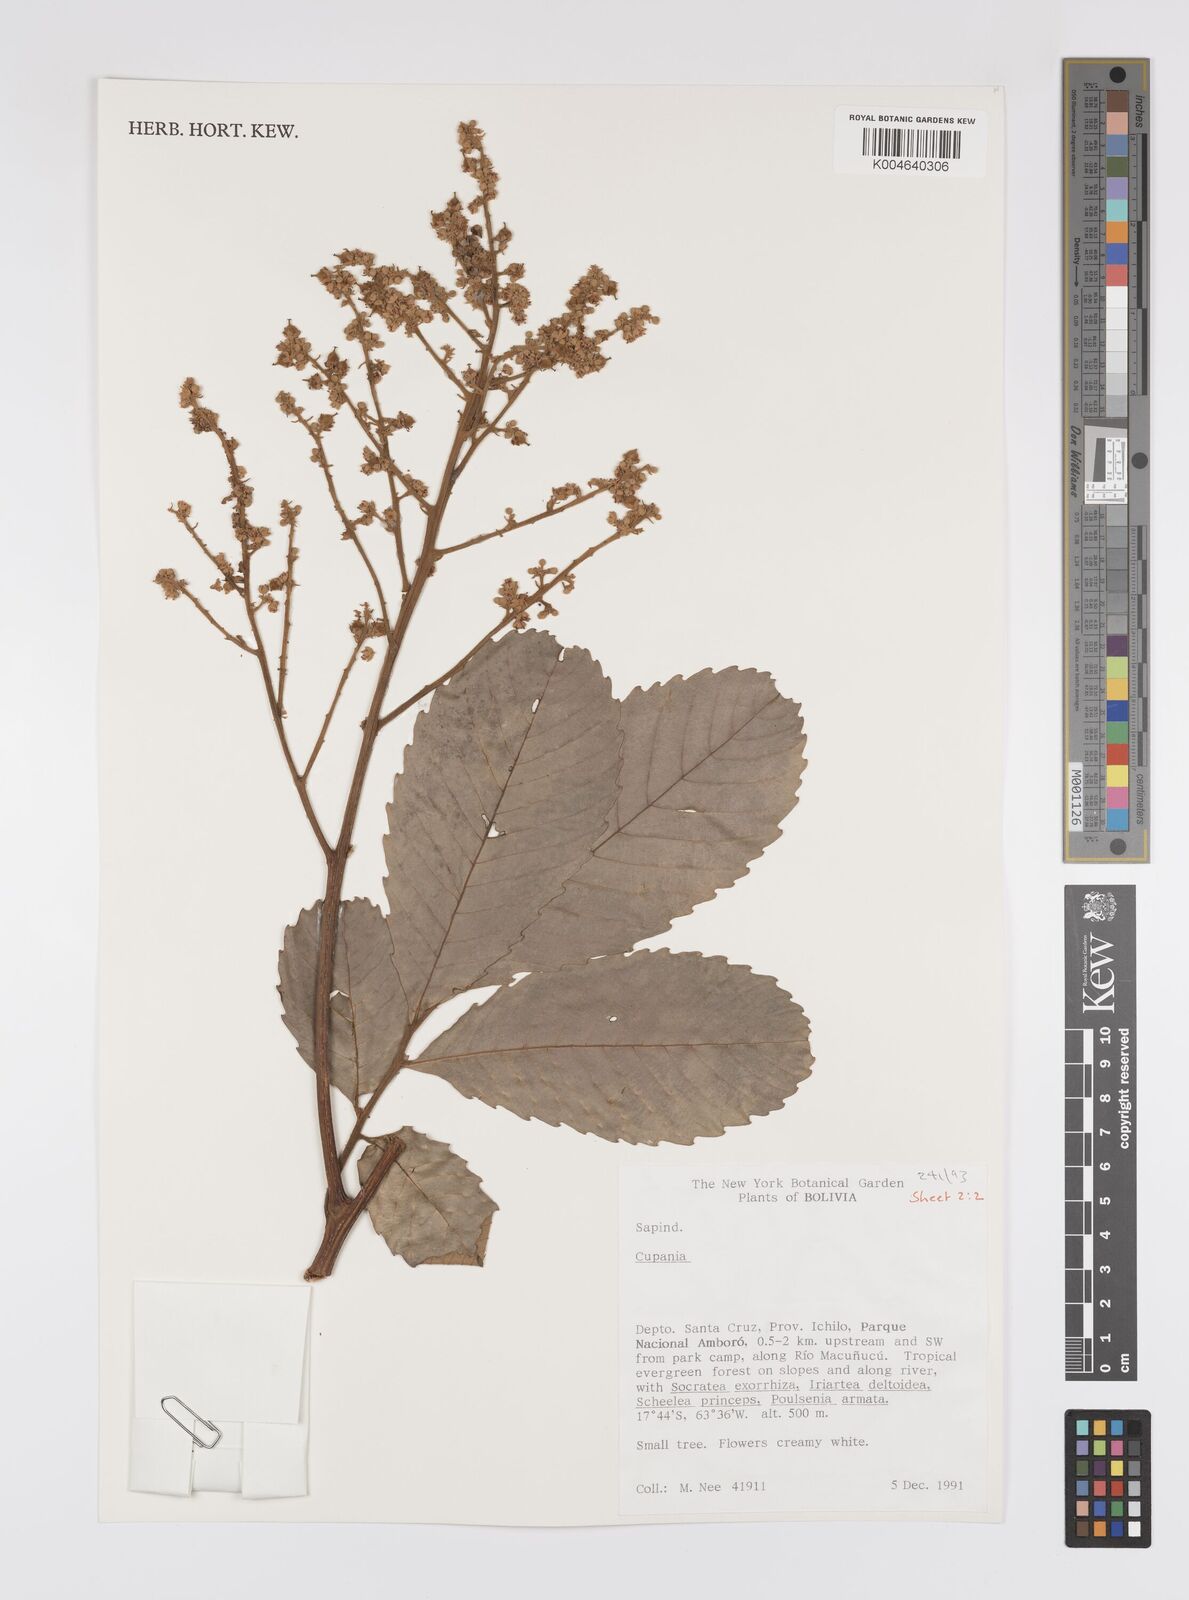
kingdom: Plantae
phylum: Tracheophyta
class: Magnoliopsida
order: Sapindales
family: Sapindaceae
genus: Cupania
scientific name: Cupania
